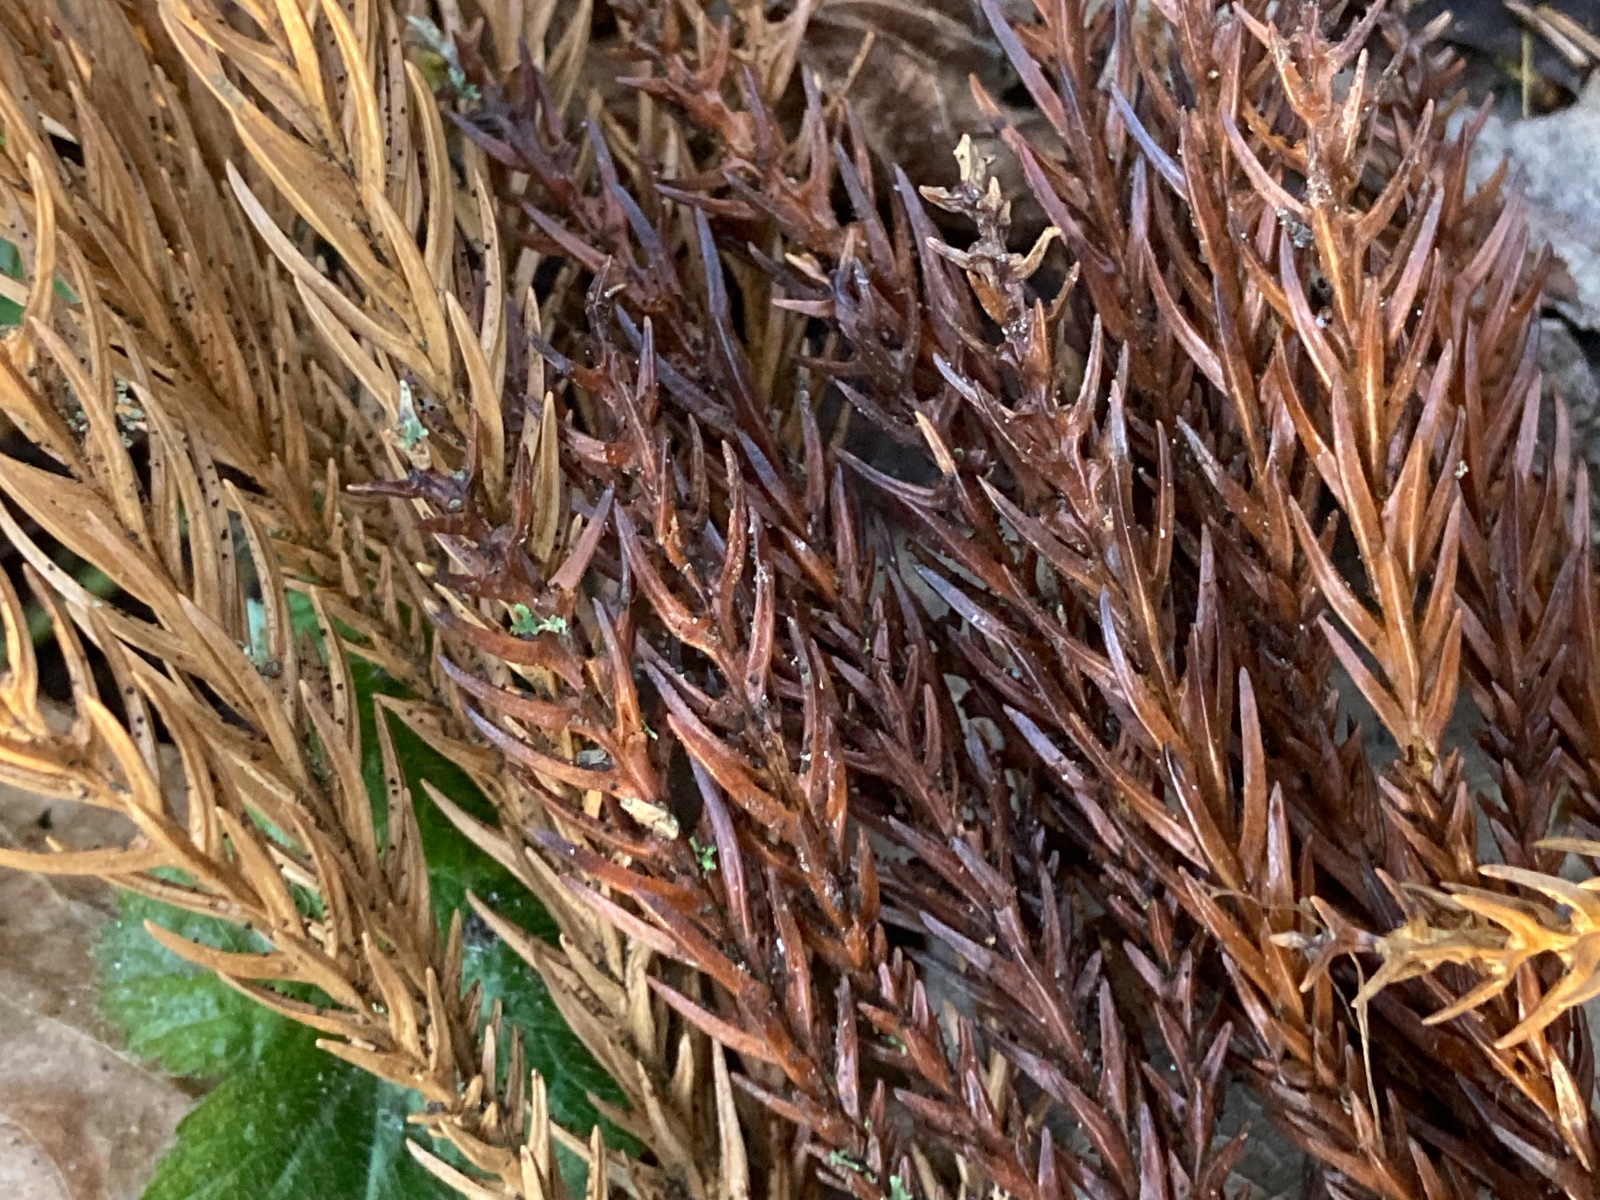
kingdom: Fungi
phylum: Ascomycota
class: Leotiomycetes
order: Helotiales
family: Gelatinodiscaceae
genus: Chloroscypha
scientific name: Chloroscypha seaveri
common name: kortstilket cypresskive
